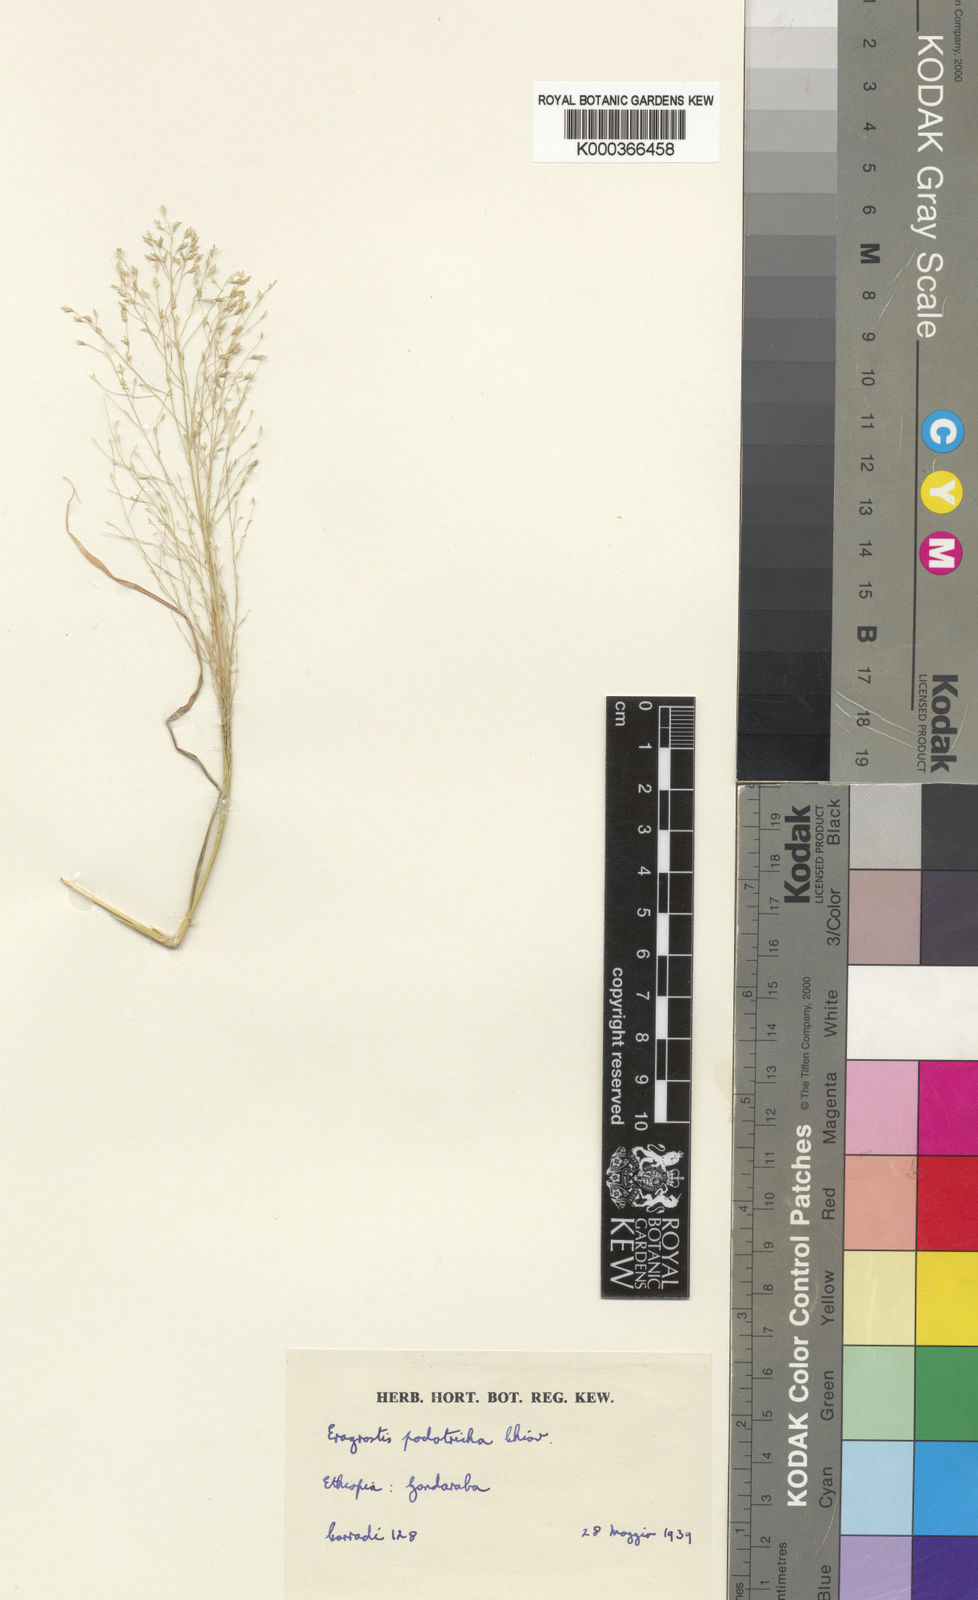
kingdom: Plantae
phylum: Tracheophyta
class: Liliopsida
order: Poales
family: Poaceae
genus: Eragrostis
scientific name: Eragrostis porosa
